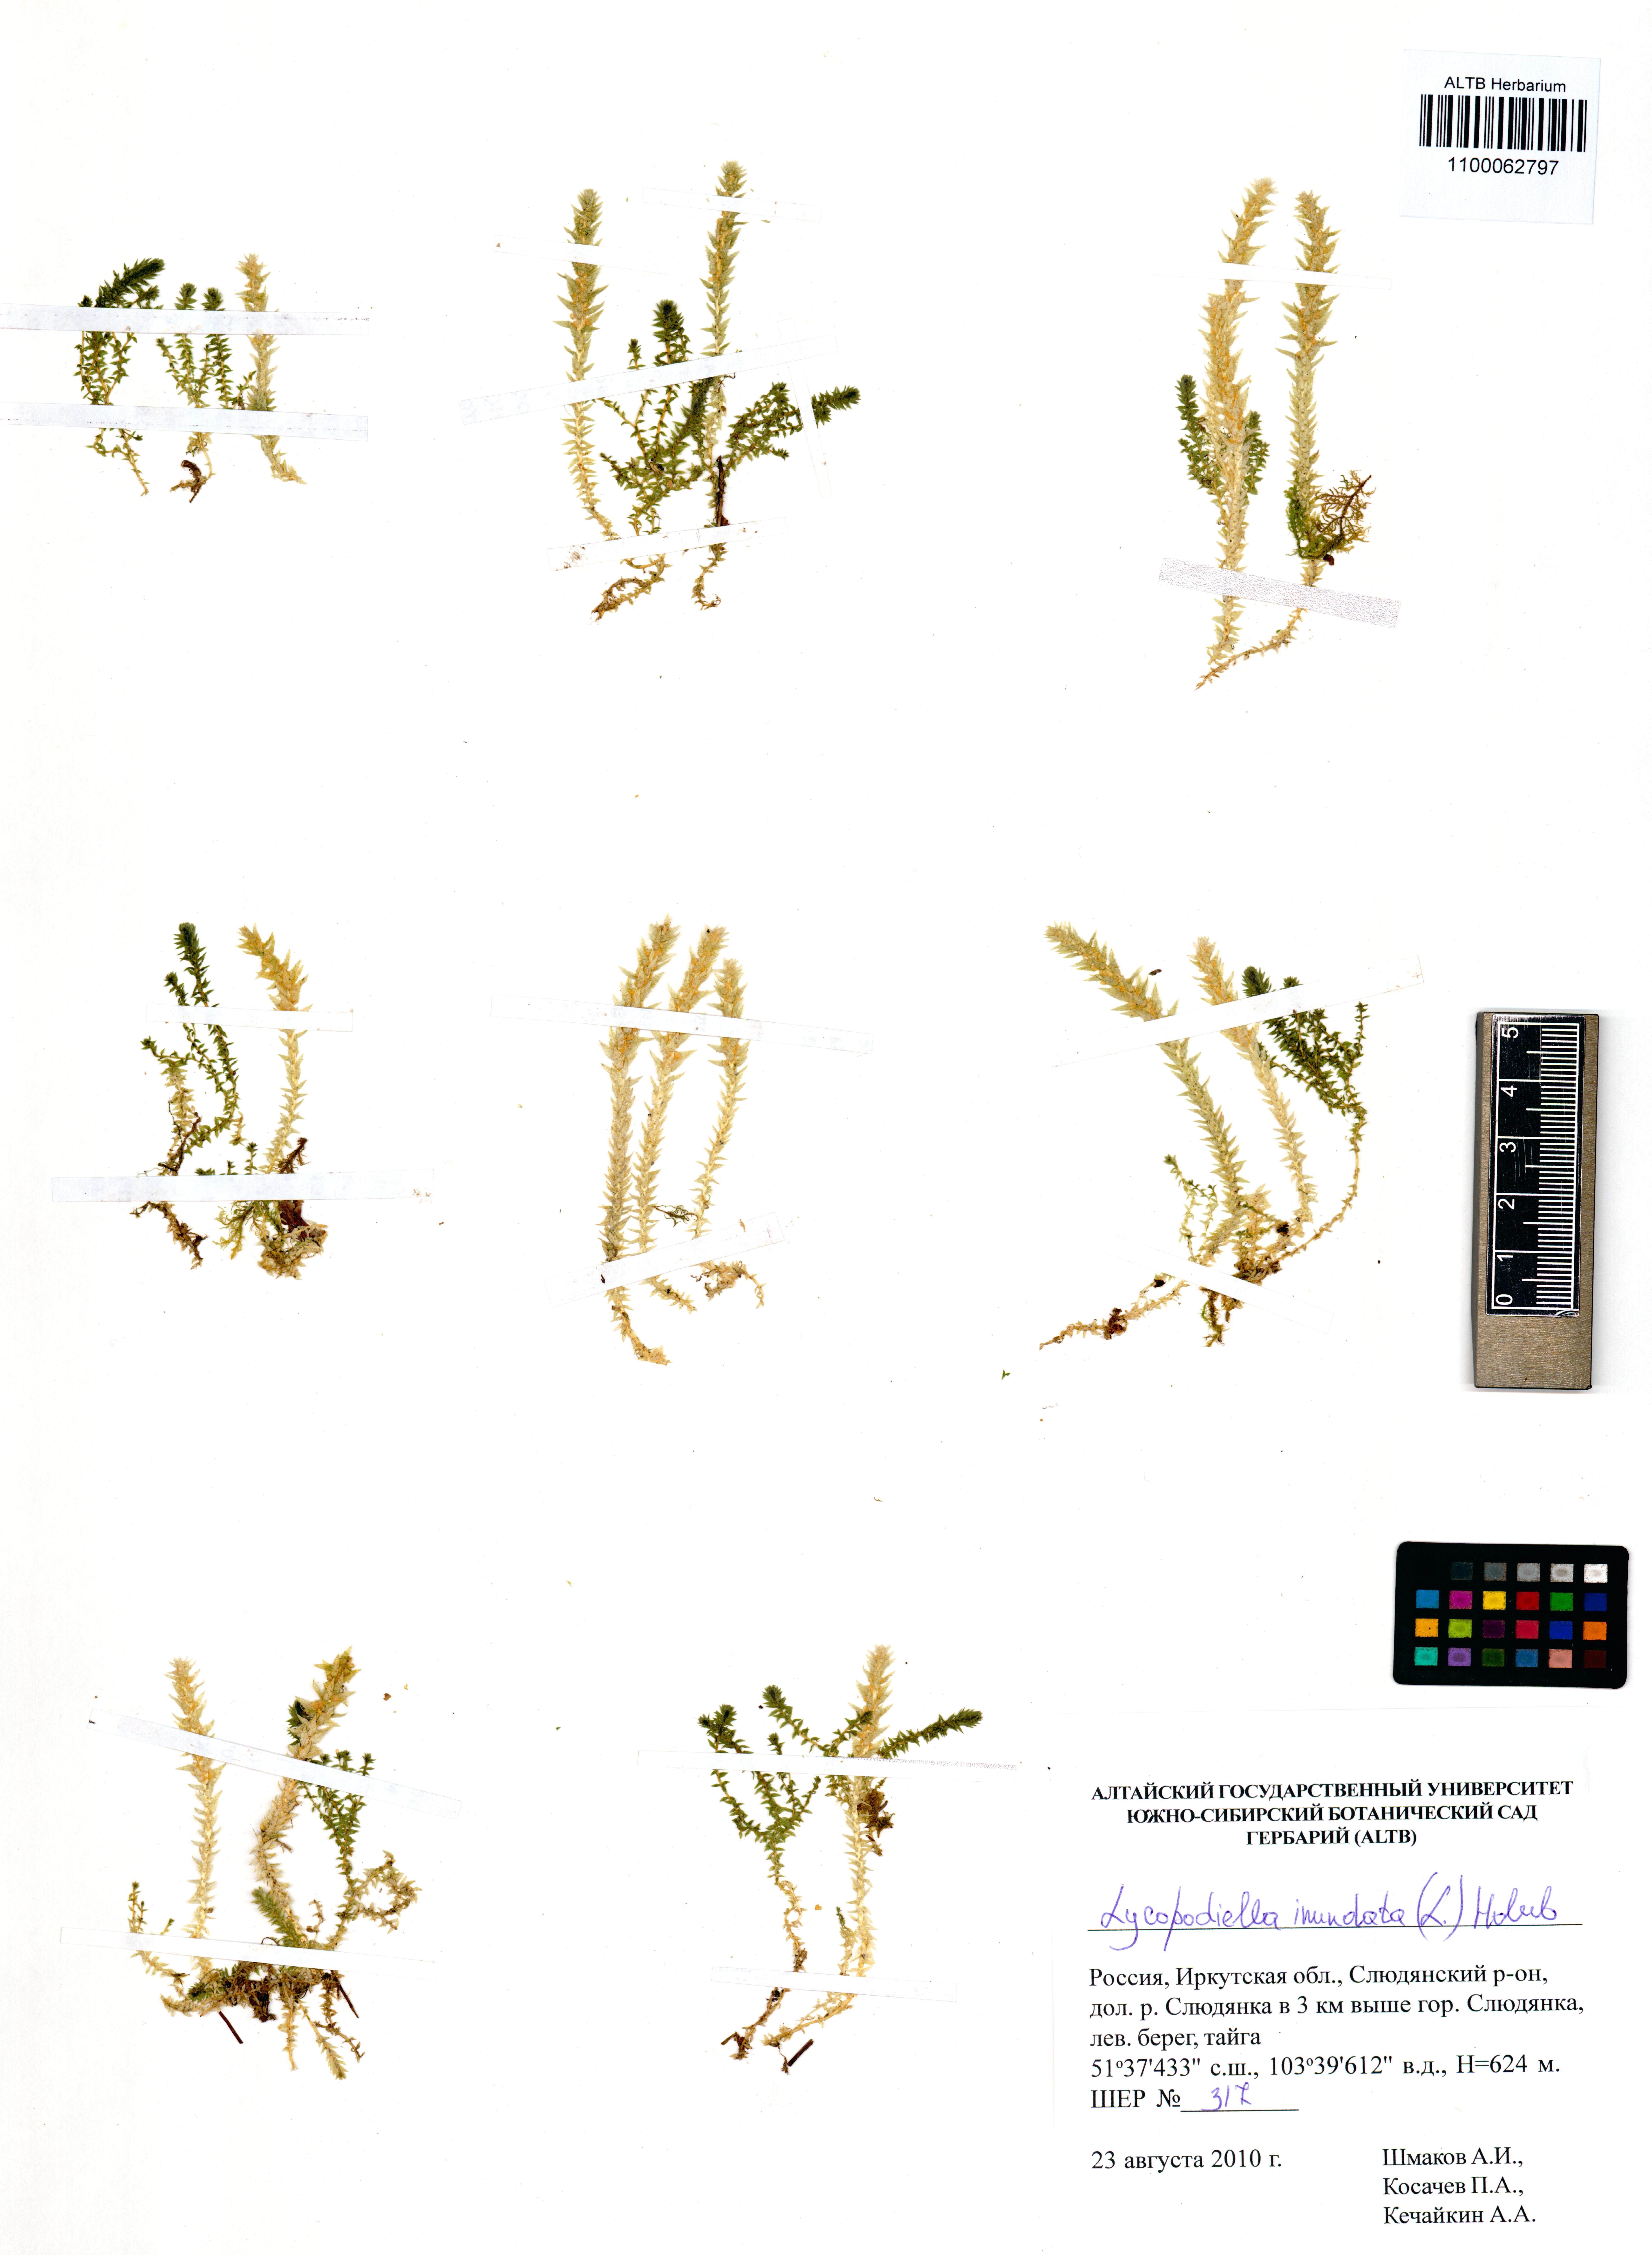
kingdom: Plantae
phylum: Tracheophyta
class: Lycopodiopsida
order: Lycopodiales
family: Lycopodiaceae
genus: Lycopodiella
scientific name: Lycopodiella inundata
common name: Marsh clubmoss
